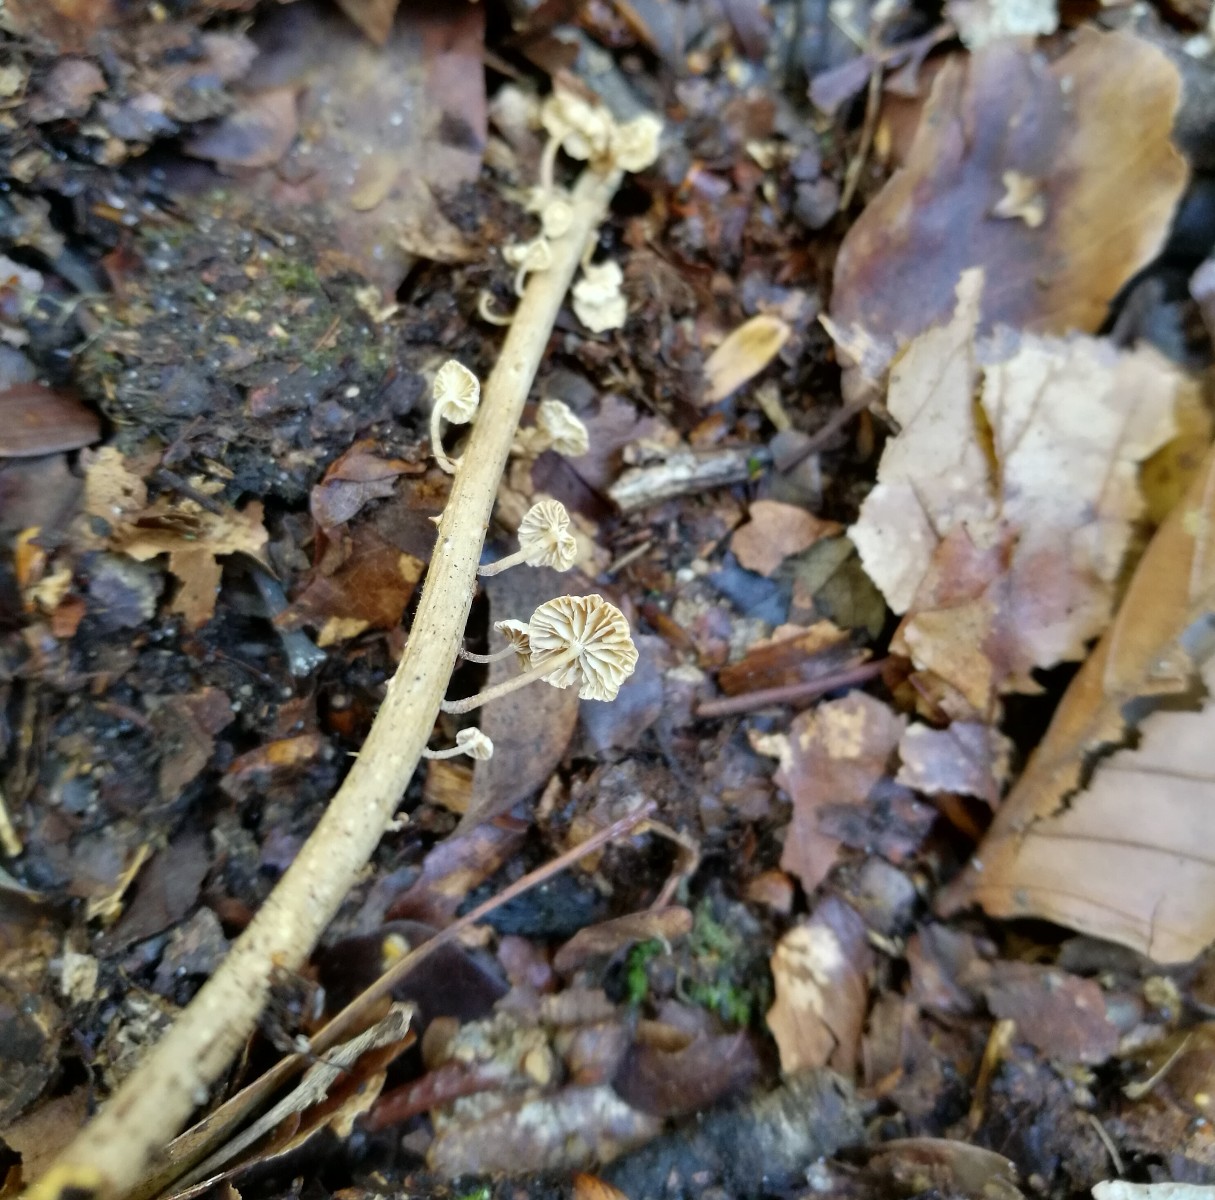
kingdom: Fungi
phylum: Basidiomycota
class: Agaricomycetes
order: Agaricales
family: Omphalotaceae
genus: Collybiopsis
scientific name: Collybiopsis ramealis
